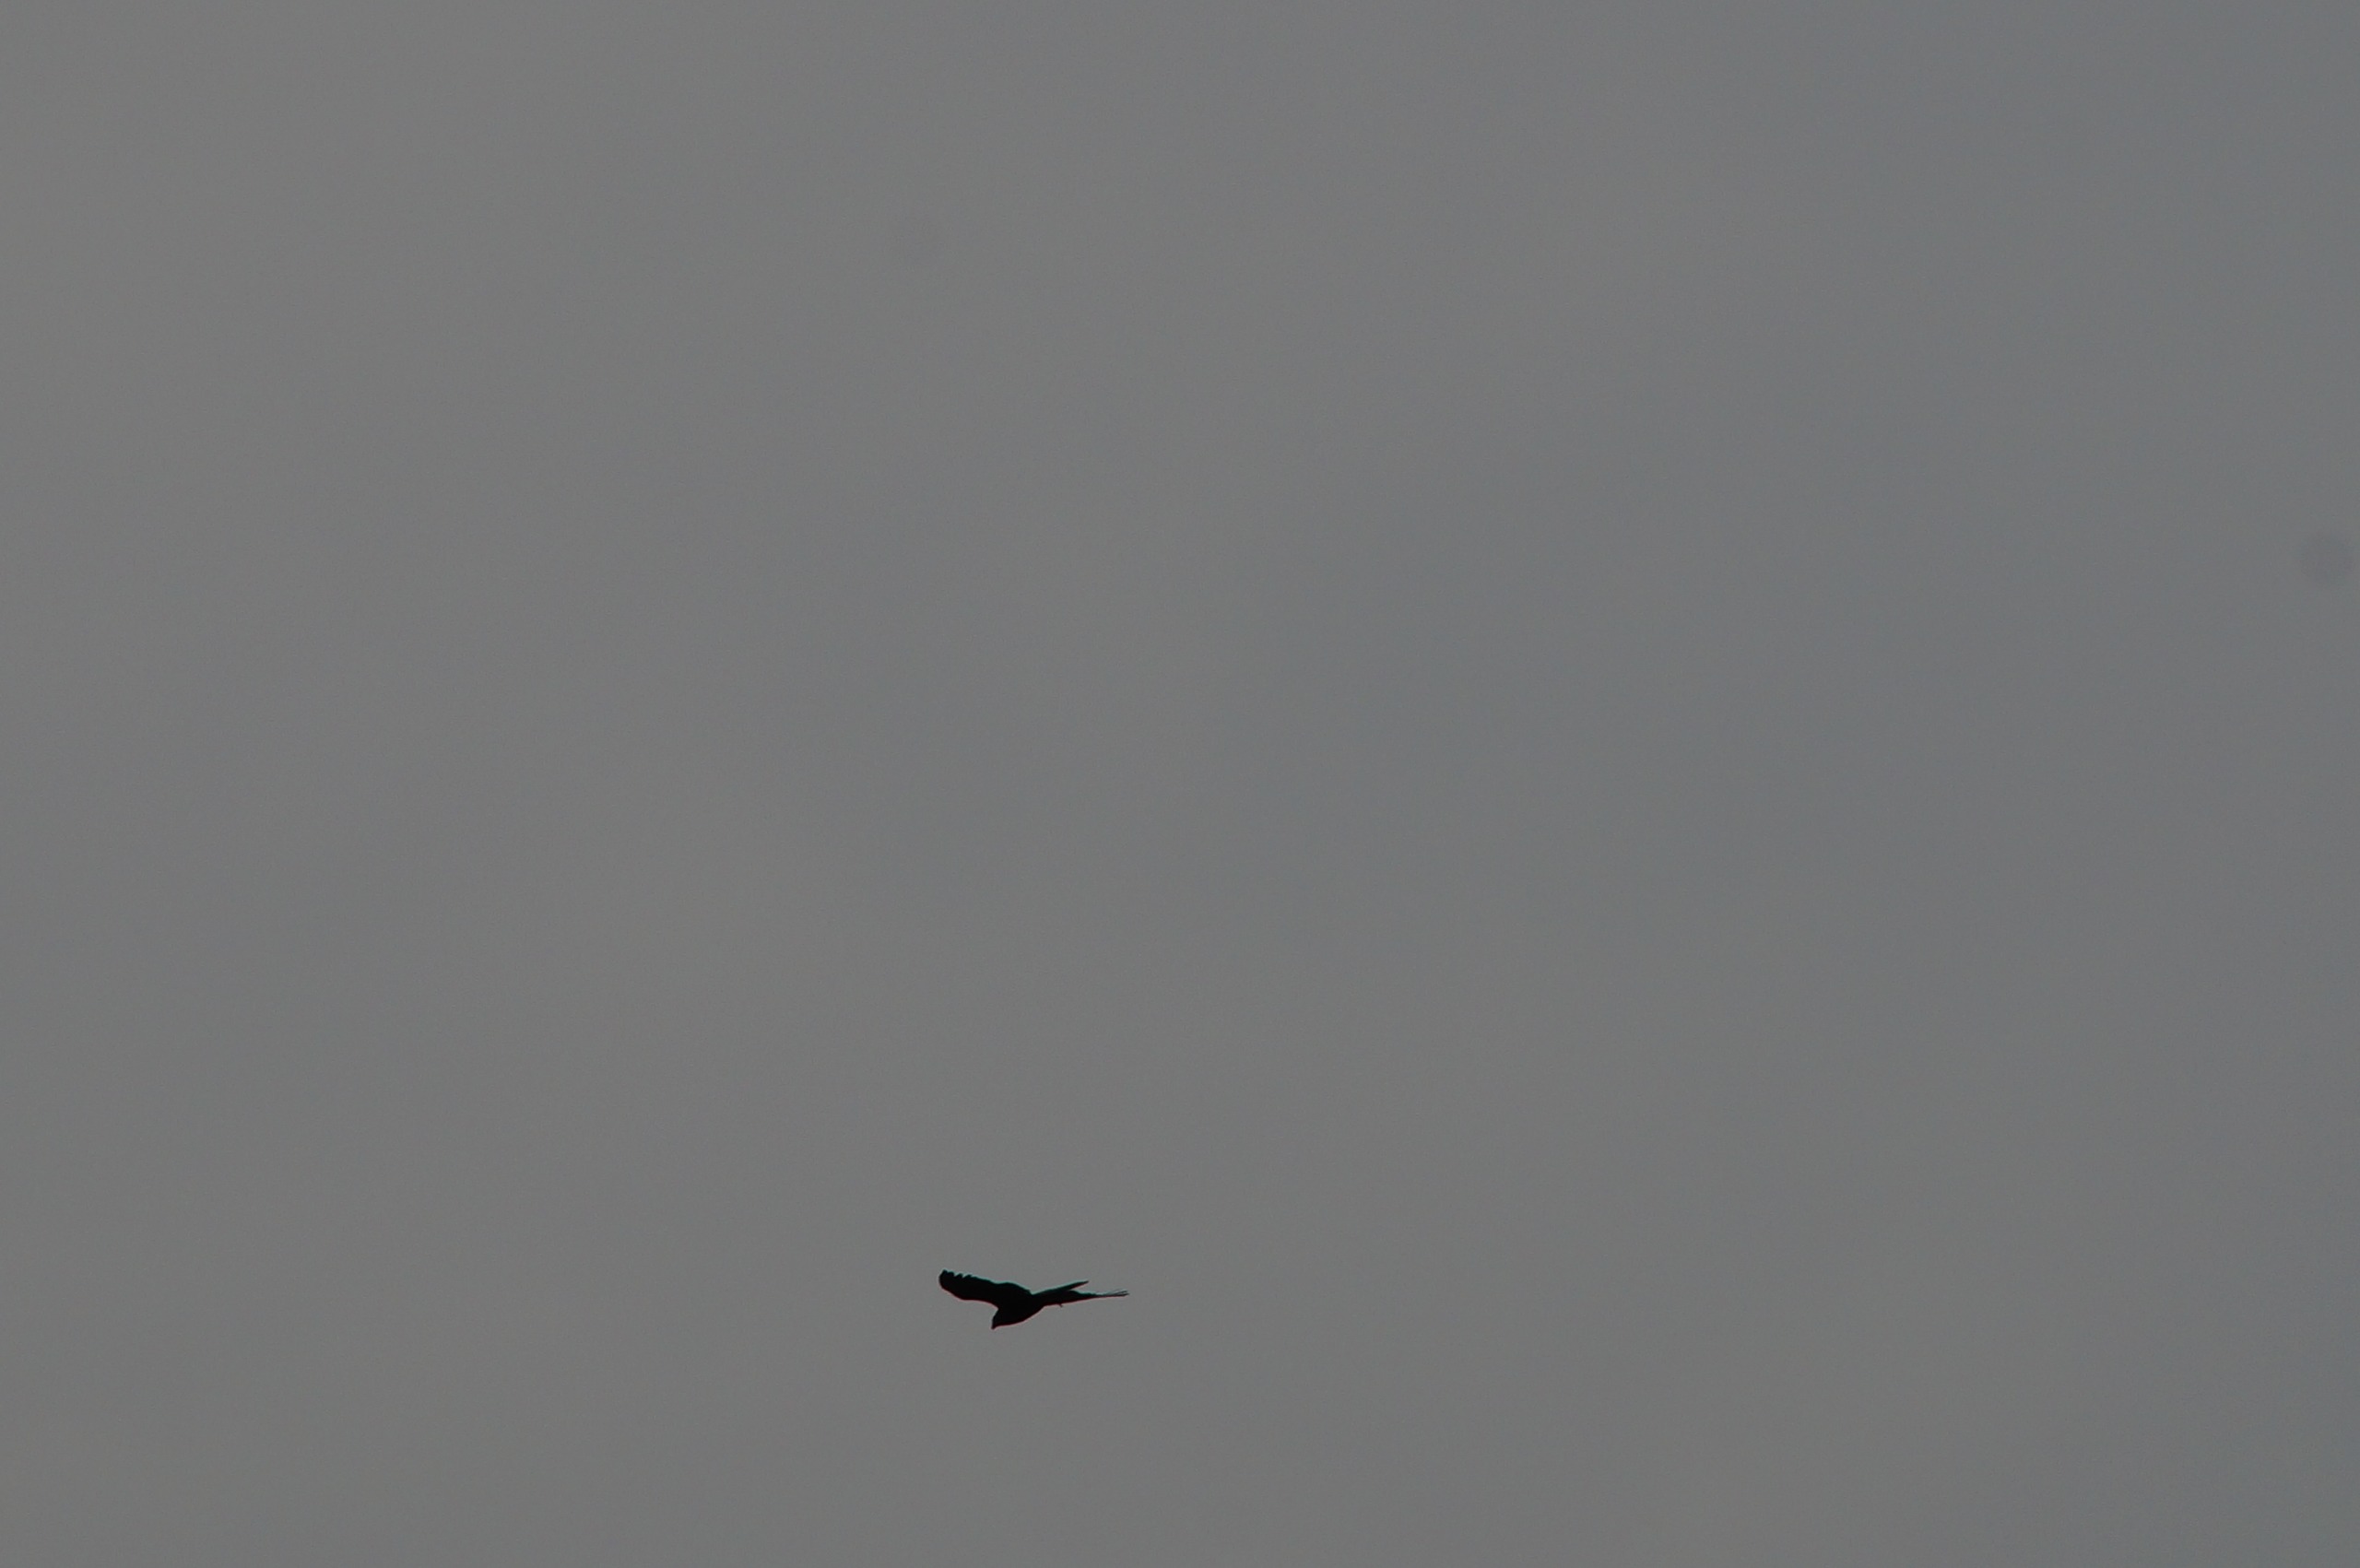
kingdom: Animalia
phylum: Chordata
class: Aves
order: Accipitriformes
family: Accipitridae
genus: Circus
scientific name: Circus aeruginosus
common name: Rørhøg
